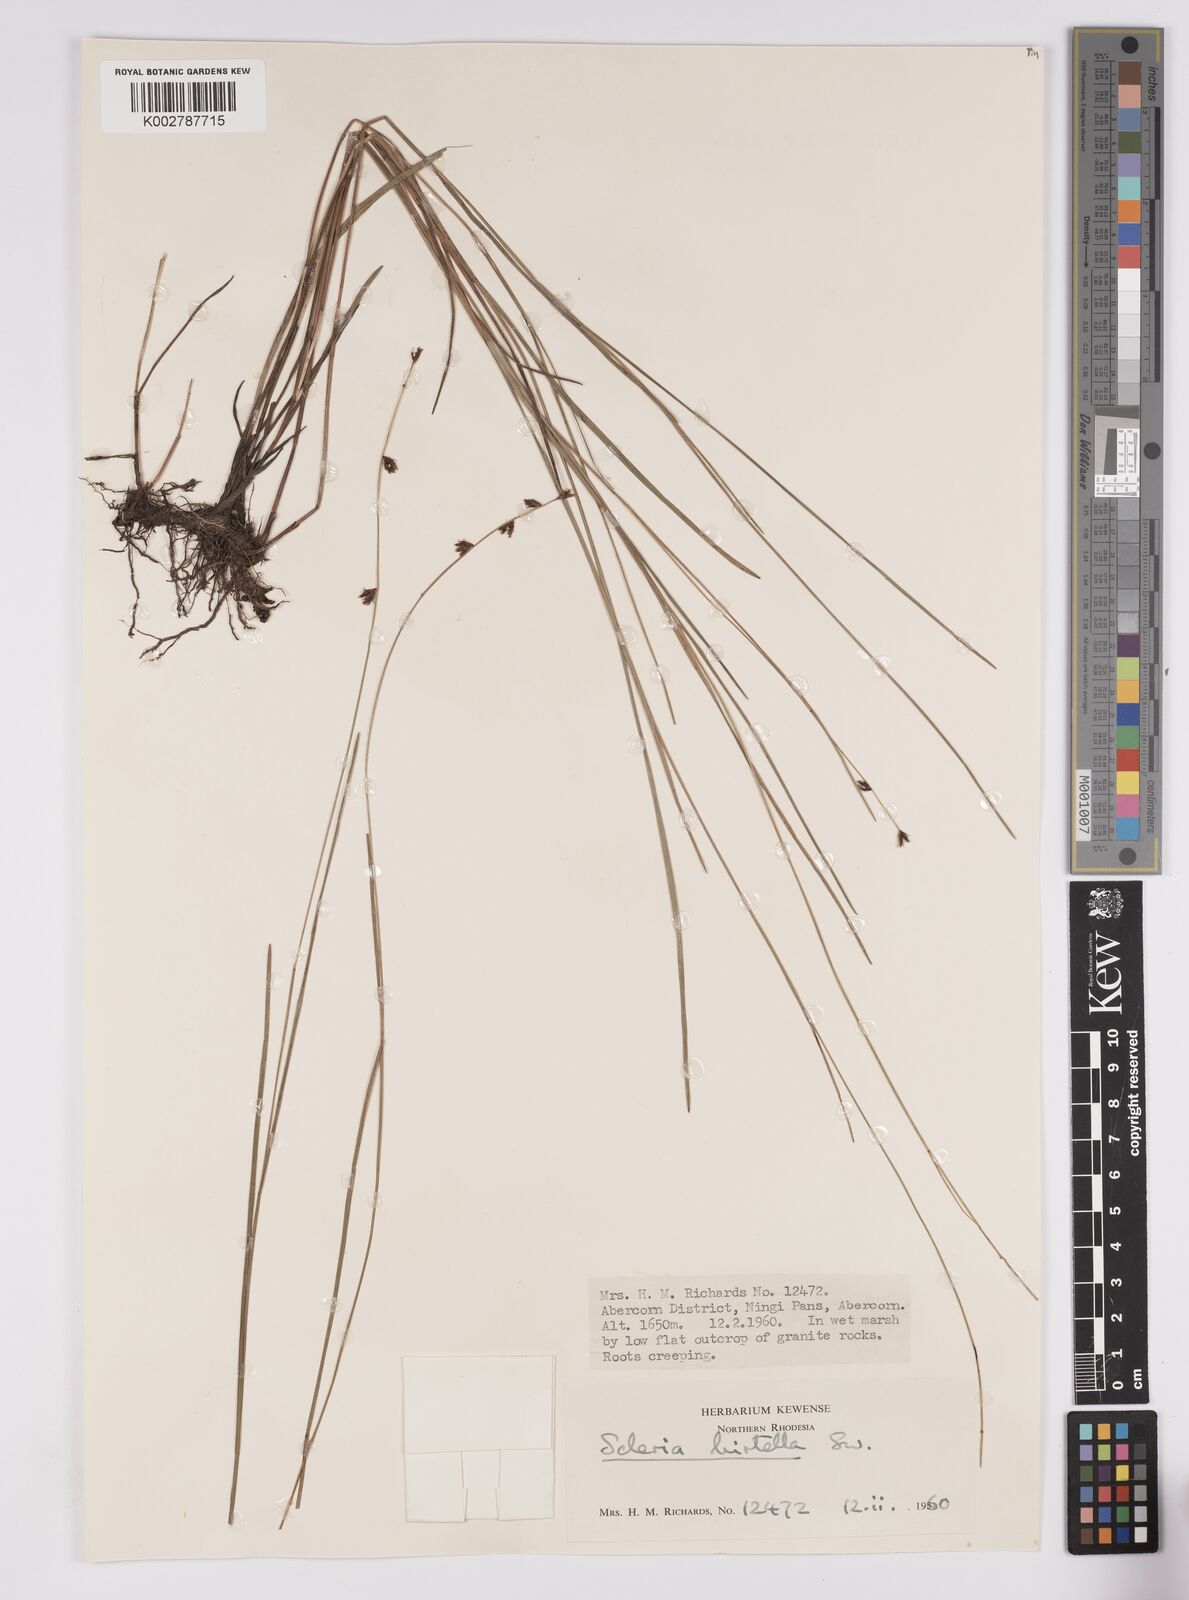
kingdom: Plantae
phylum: Tracheophyta
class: Liliopsida
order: Poales
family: Cyperaceae
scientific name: Cyperaceae
